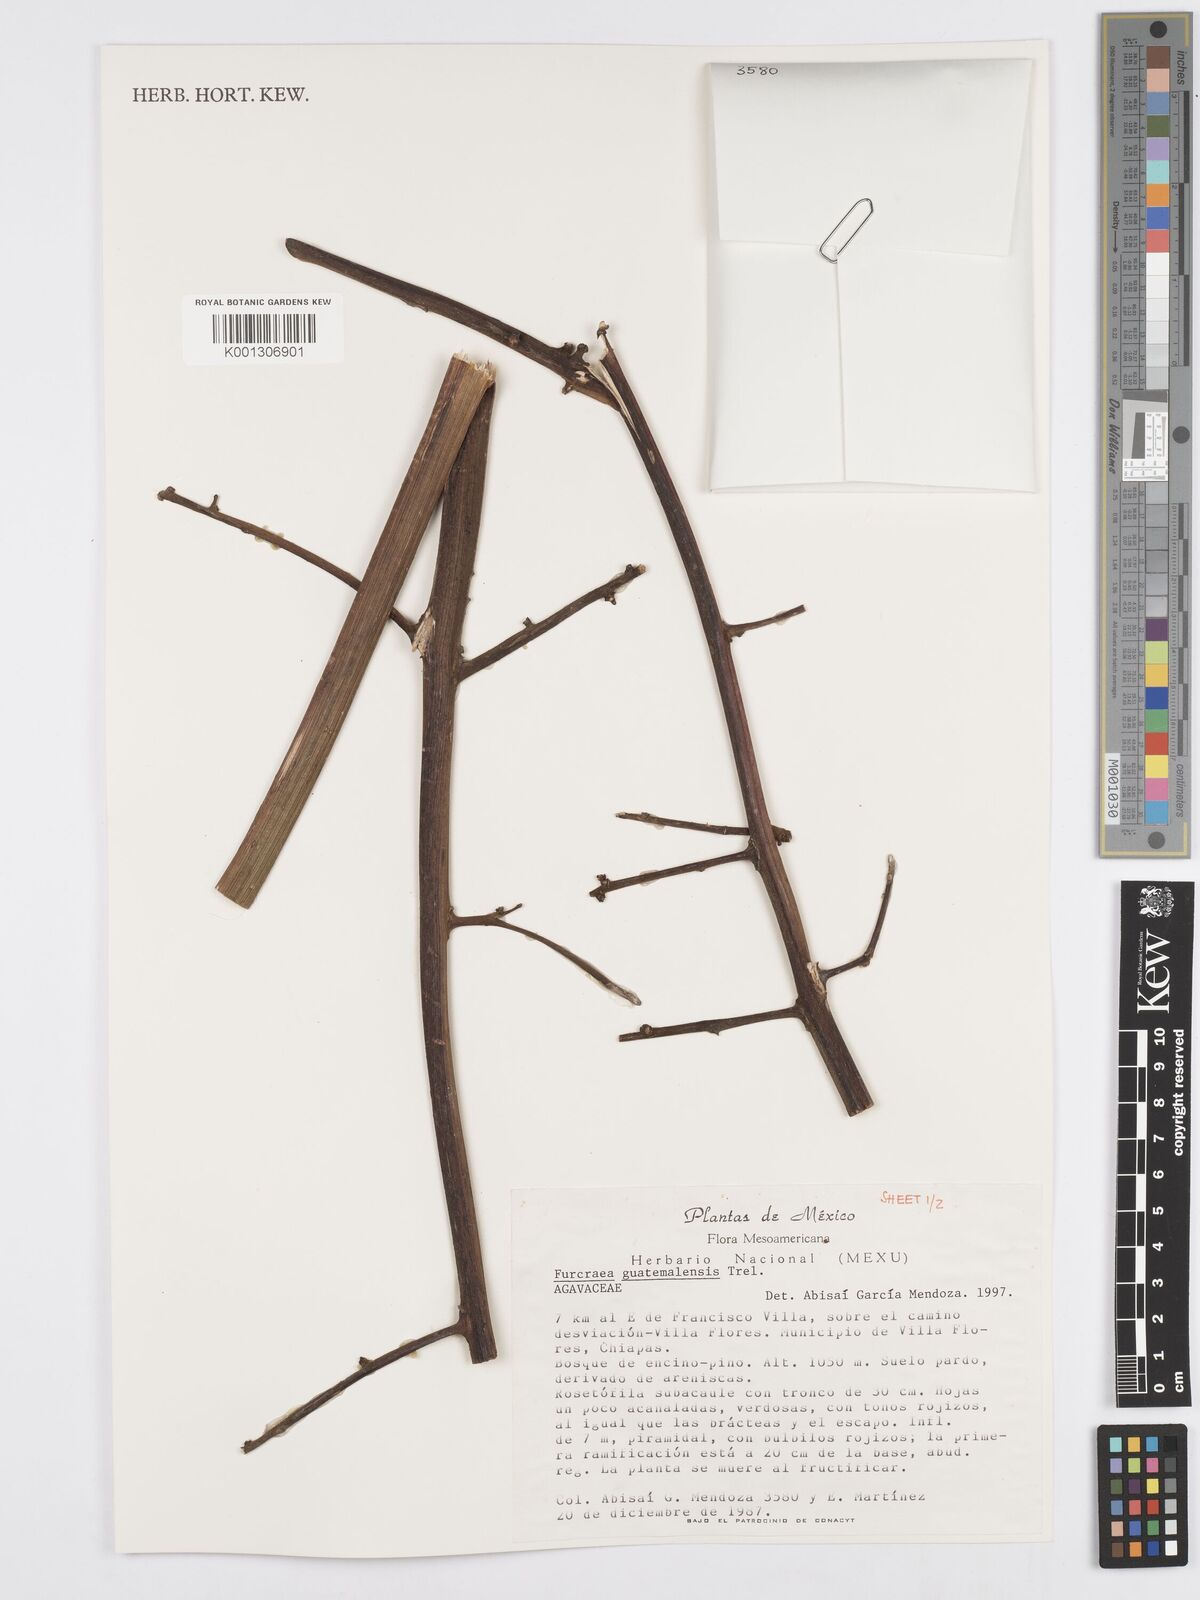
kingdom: Plantae
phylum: Tracheophyta
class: Liliopsida
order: Asparagales
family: Asparagaceae
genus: Furcraea
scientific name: Furcraea guatemalensis
